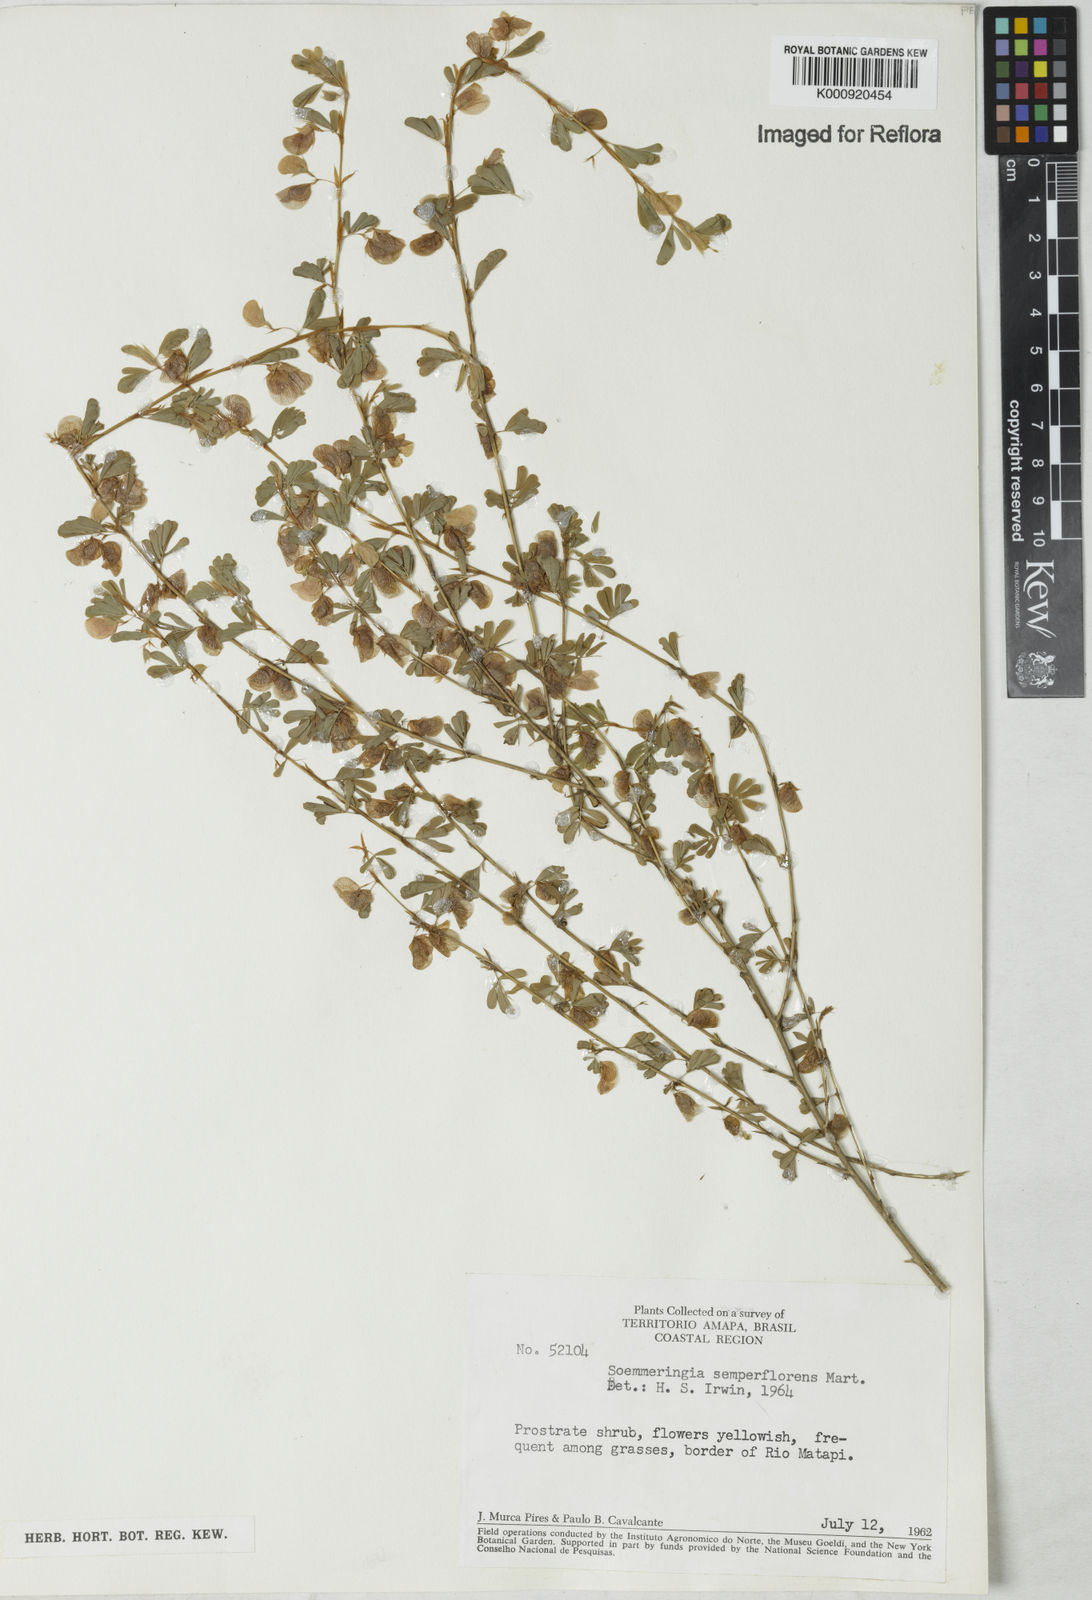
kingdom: Plantae
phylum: Tracheophyta
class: Magnoliopsida
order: Fabales
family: Fabaceae
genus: Soemmeringia
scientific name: Soemmeringia
